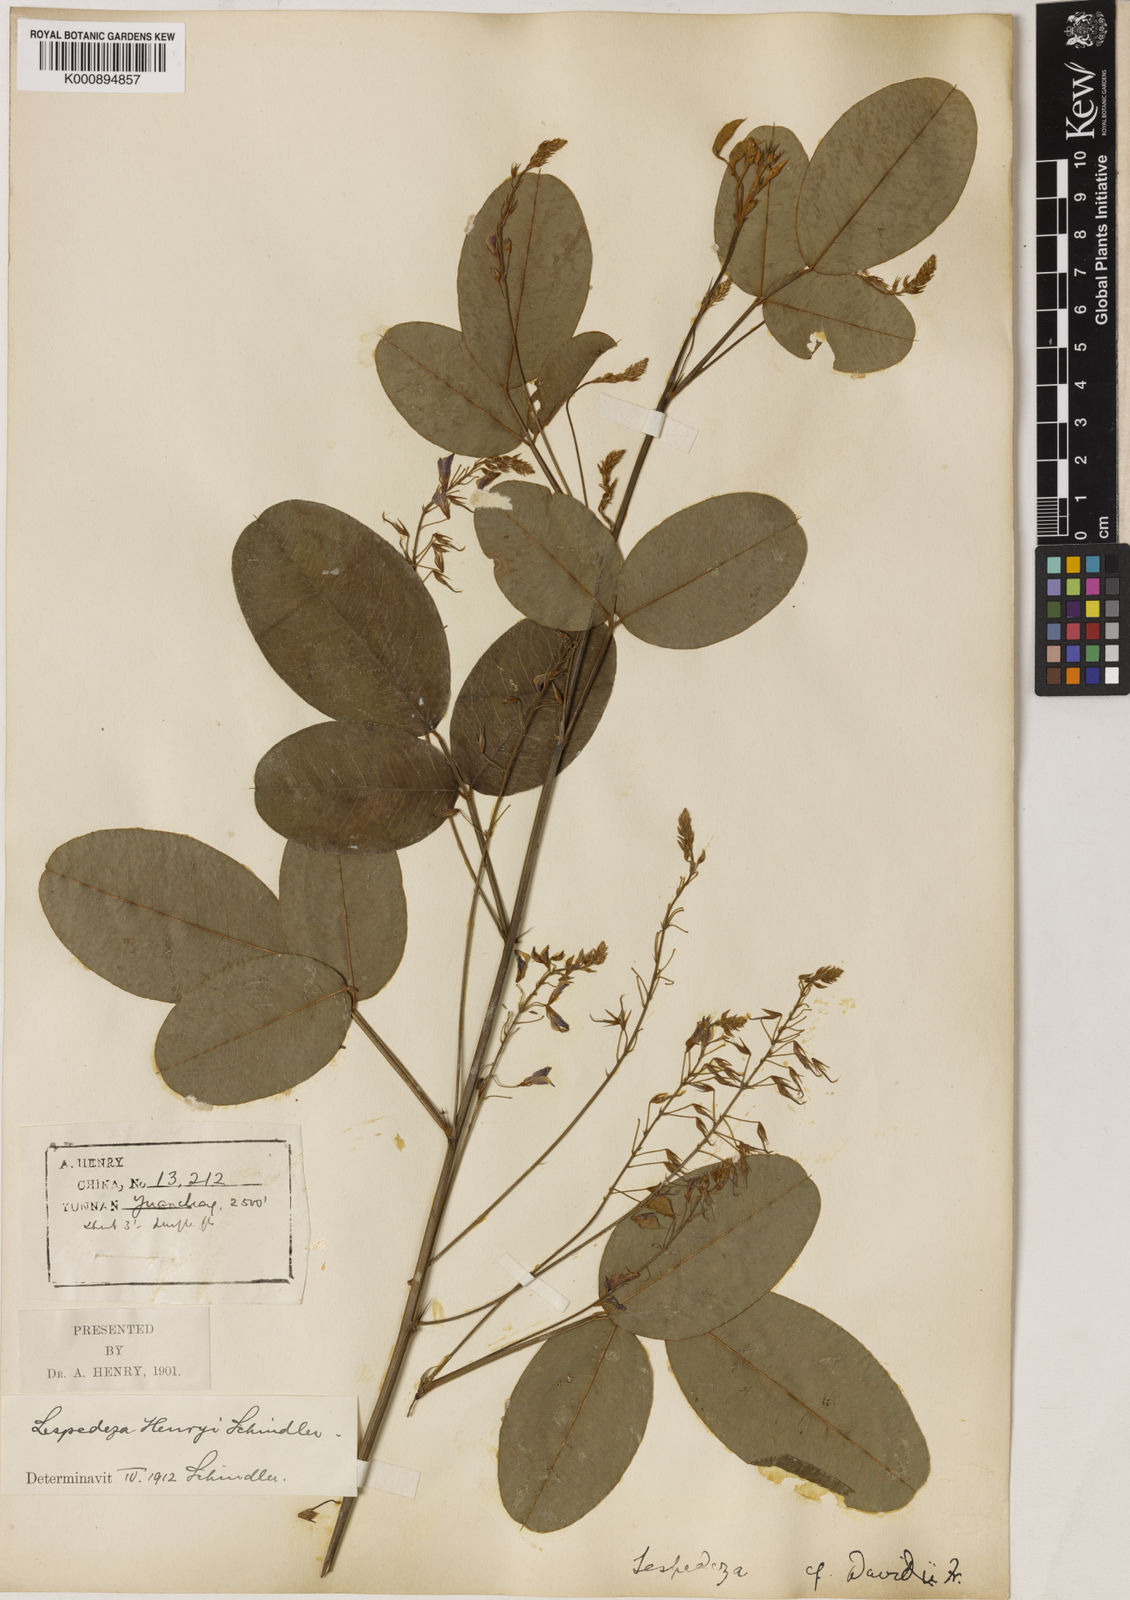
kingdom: Plantae
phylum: Tracheophyta
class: Magnoliopsida
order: Fabales
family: Fabaceae
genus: Campylotropis
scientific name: Campylotropis henryi
